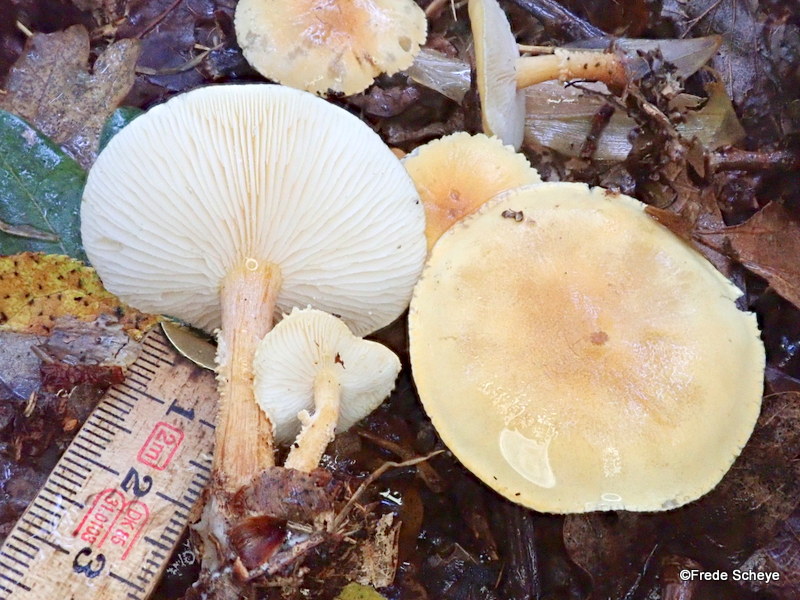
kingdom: Fungi
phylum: Basidiomycota
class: Agaricomycetes
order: Agaricales
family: Tricholomataceae
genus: Cystoderma
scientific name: Cystoderma amianthinum
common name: okkergul grynhat
